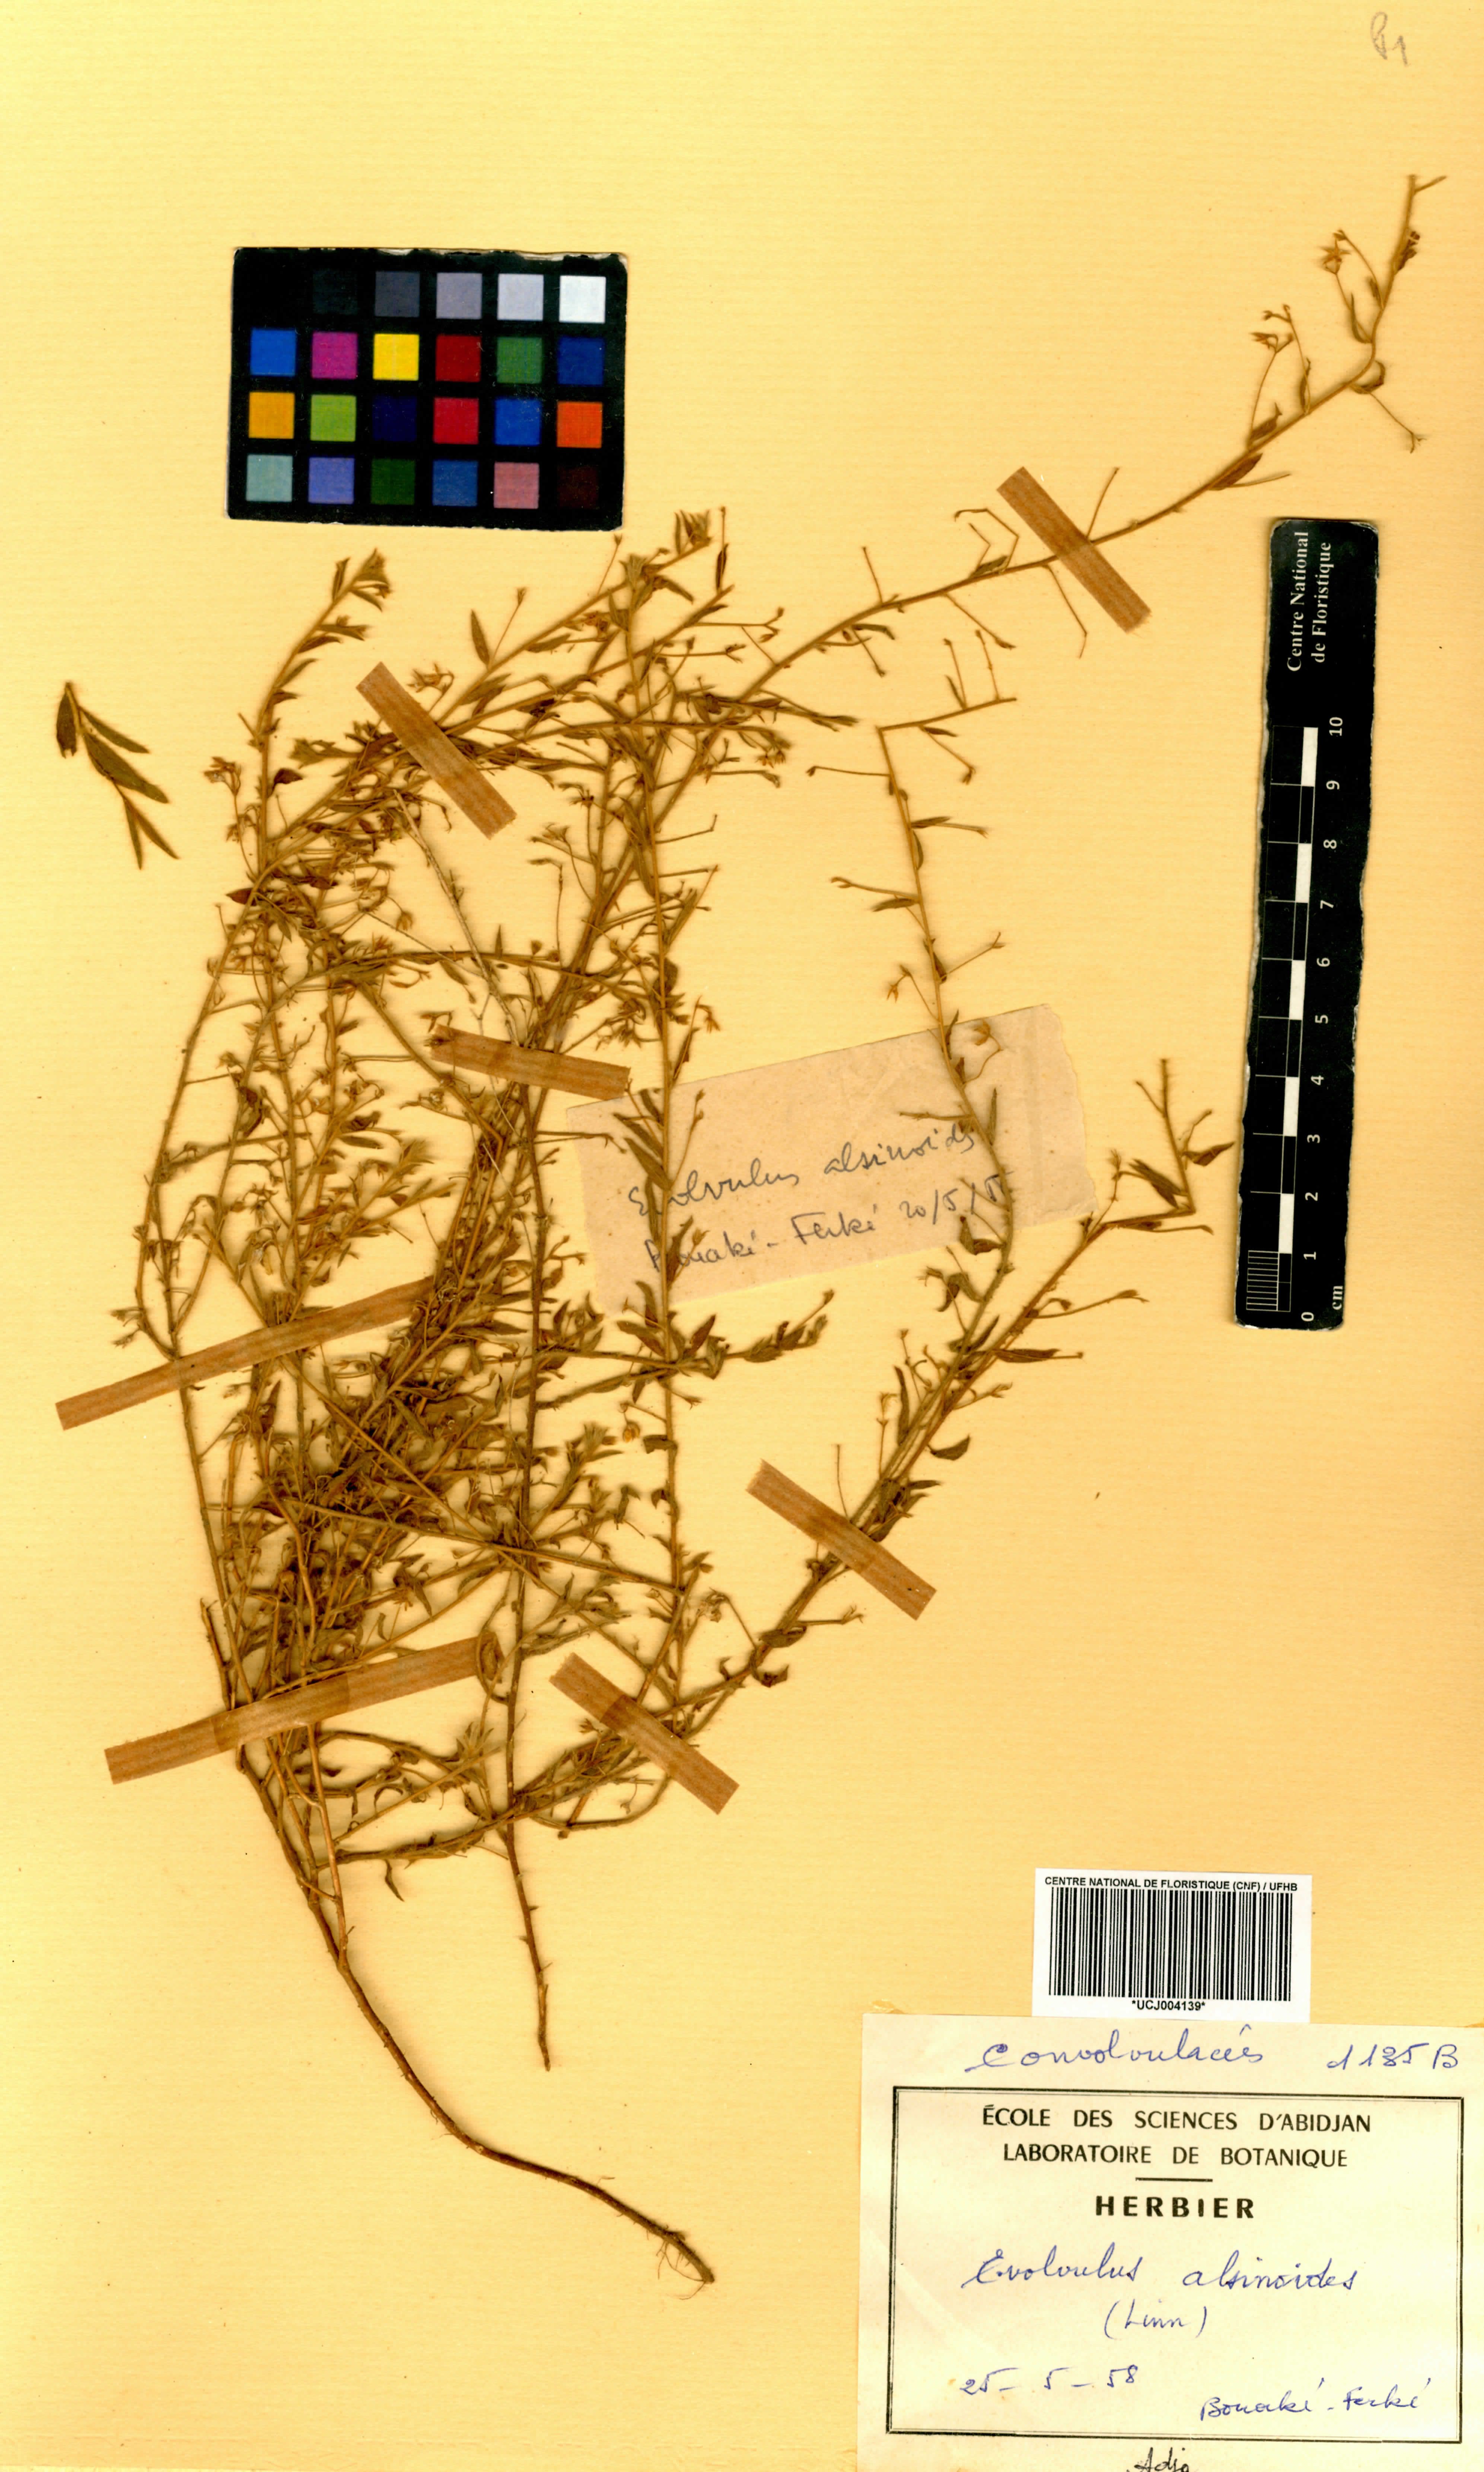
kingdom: Plantae
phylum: Tracheophyta
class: Magnoliopsida
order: Solanales
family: Convolvulaceae
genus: Evolvulus
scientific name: Evolvulus alsinoides
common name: Slender dwarf morning-glory
